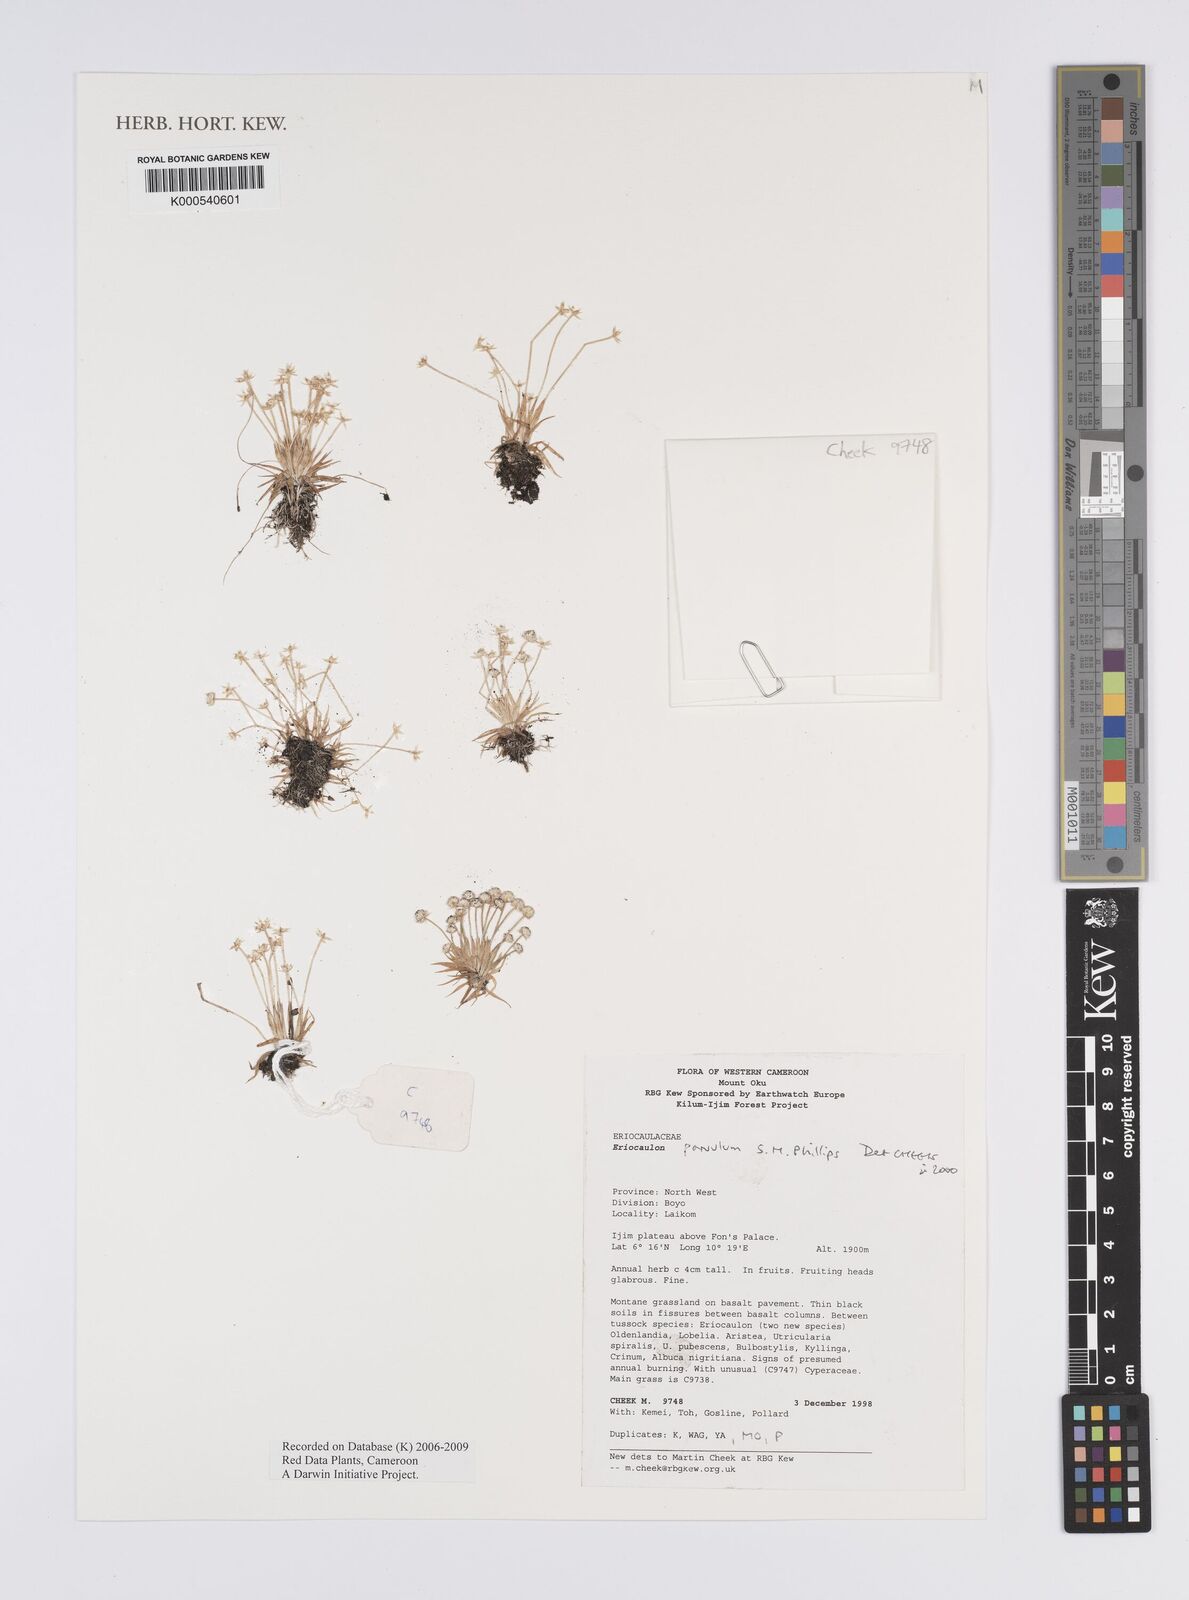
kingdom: Plantae
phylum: Tracheophyta
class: Liliopsida
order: Poales
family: Eriocaulaceae
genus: Eriocaulon
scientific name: Eriocaulon parvulum
